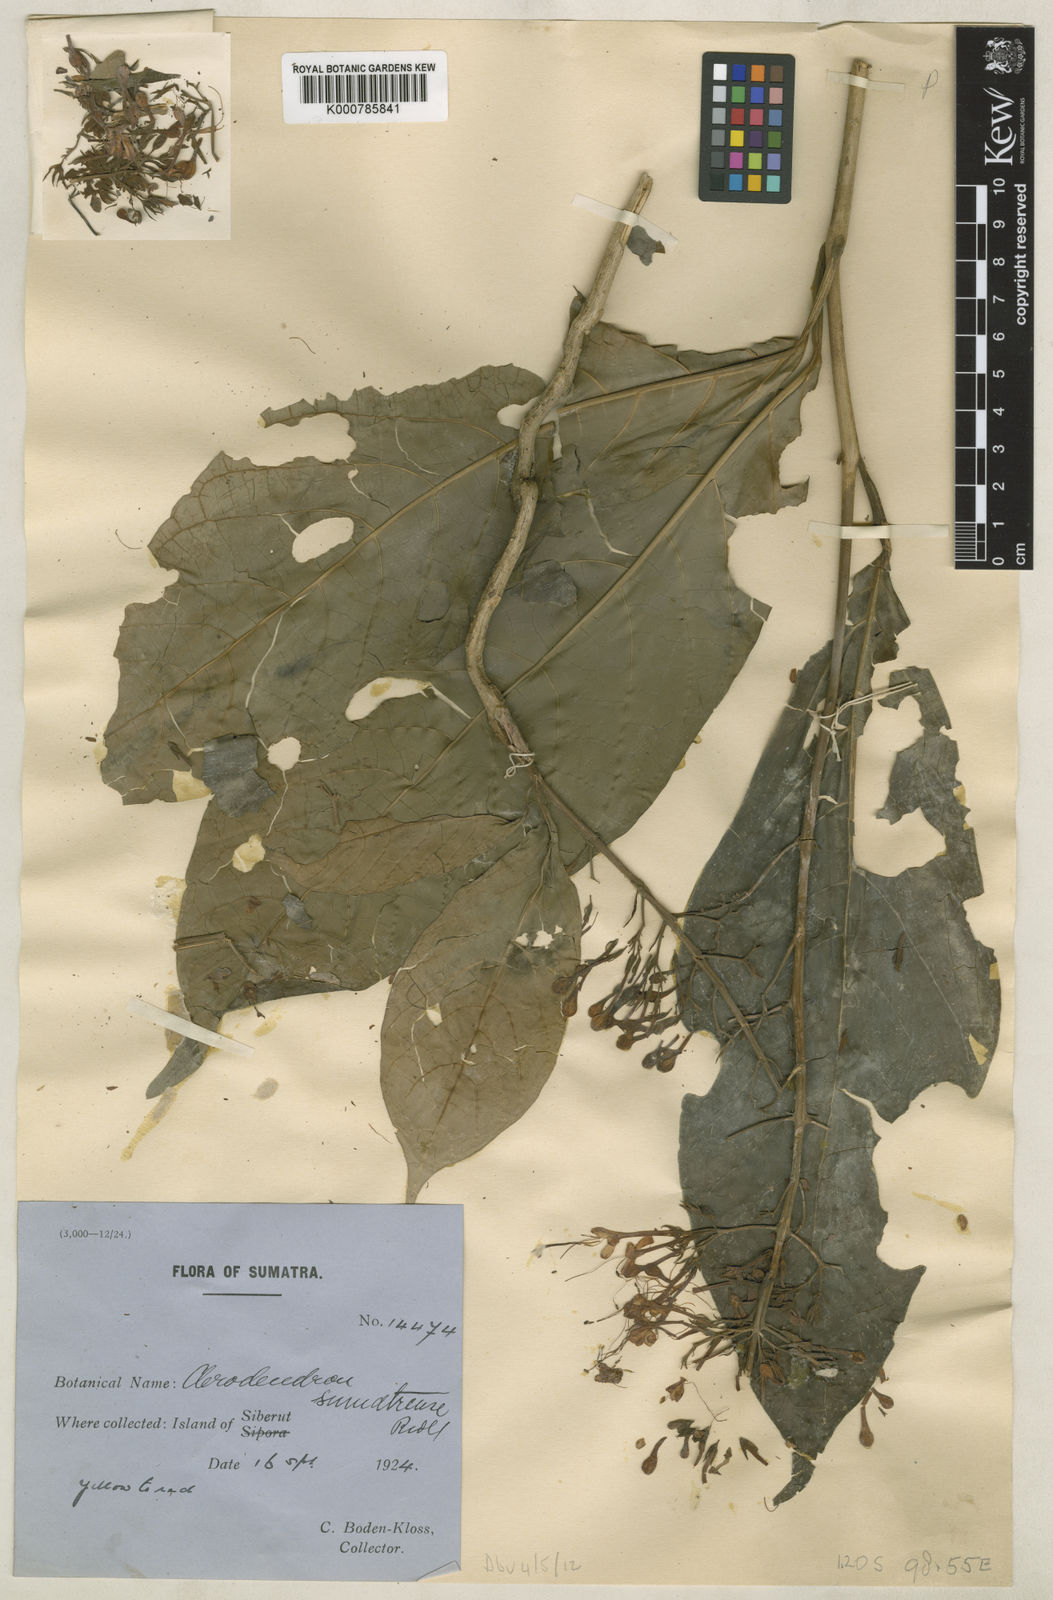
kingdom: Plantae
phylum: Tracheophyta
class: Magnoliopsida
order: Lamiales
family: Lamiaceae
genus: Clerodendrum
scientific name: Clerodendrum phyllomega
